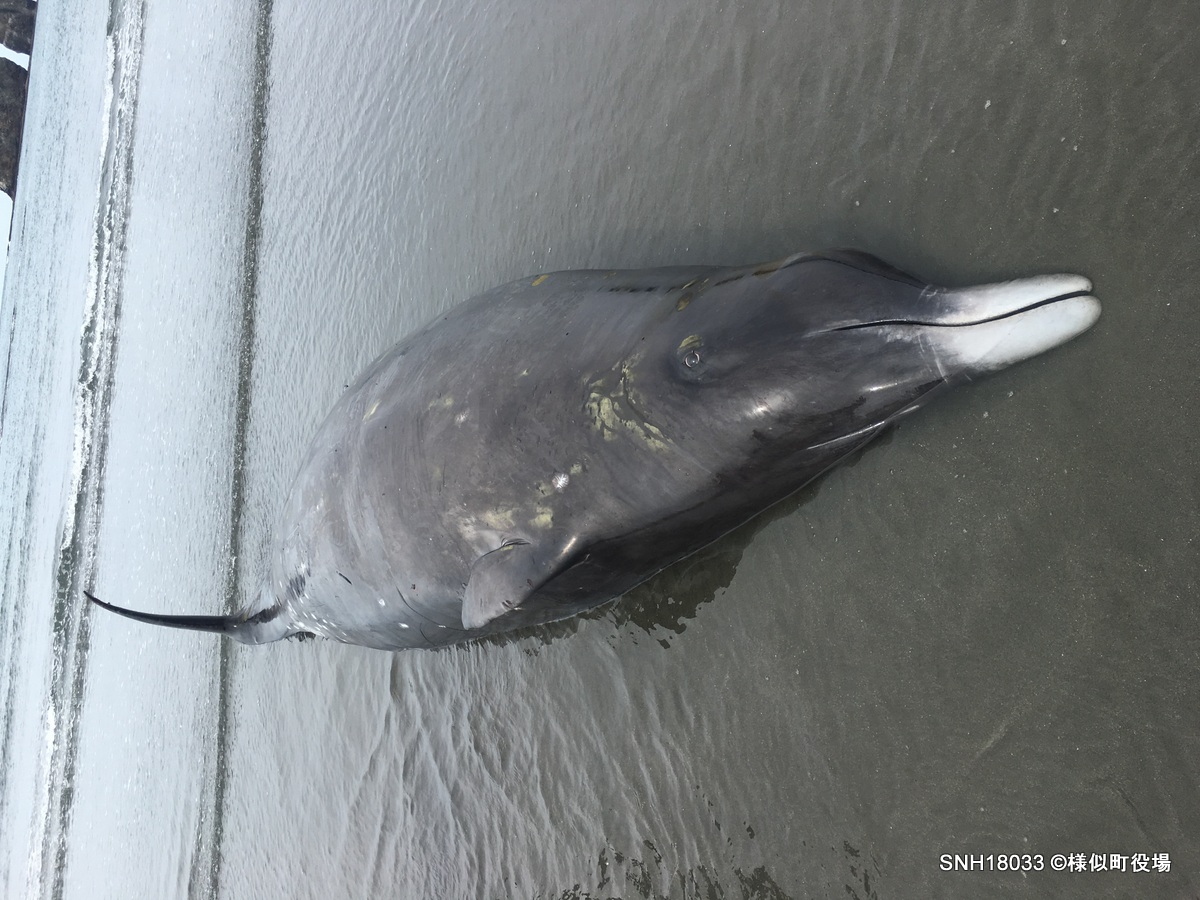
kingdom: Animalia
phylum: Chordata
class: Mammalia
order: Cetacea
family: Hyperoodontidae
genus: Mesoplodon
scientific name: Mesoplodon carlhubbsi
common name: Hubbs' beaked whale
